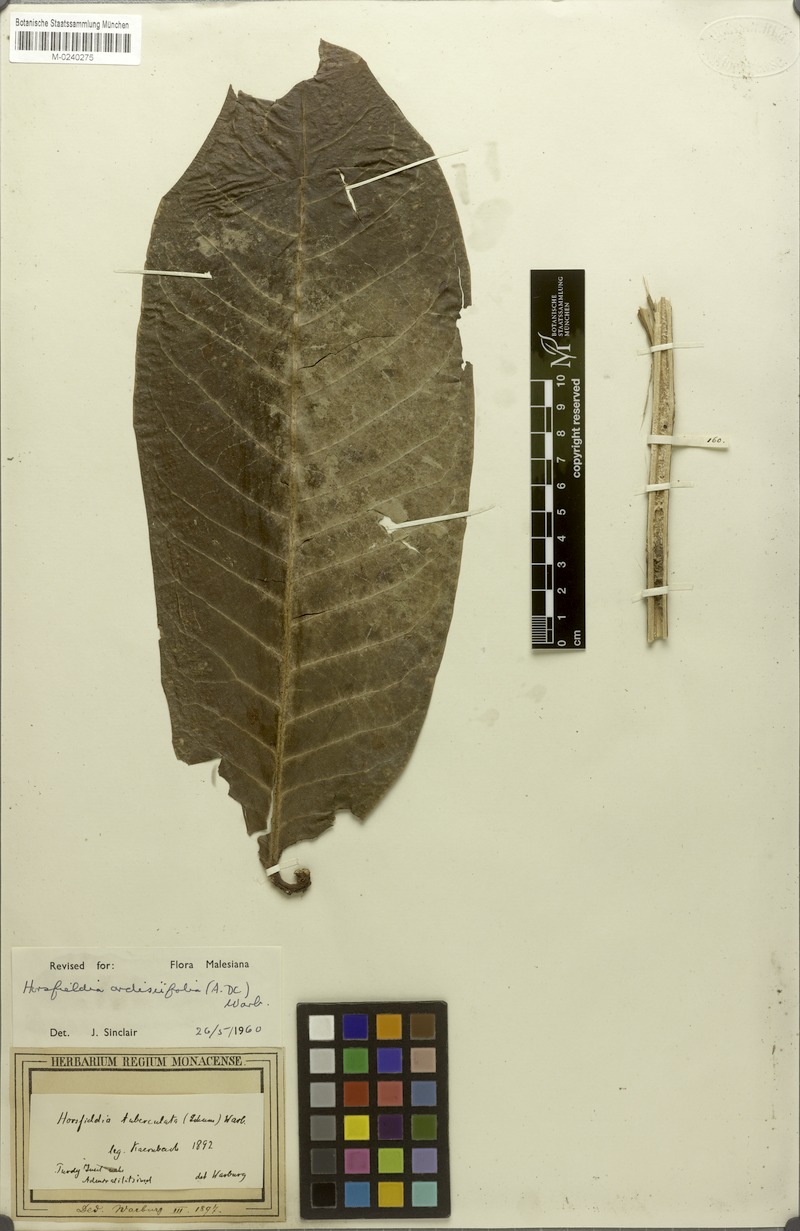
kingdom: Plantae
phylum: Tracheophyta
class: Magnoliopsida
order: Magnoliales
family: Myristicaceae
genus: Horsfieldia
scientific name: Horsfieldia ardisiifolia
